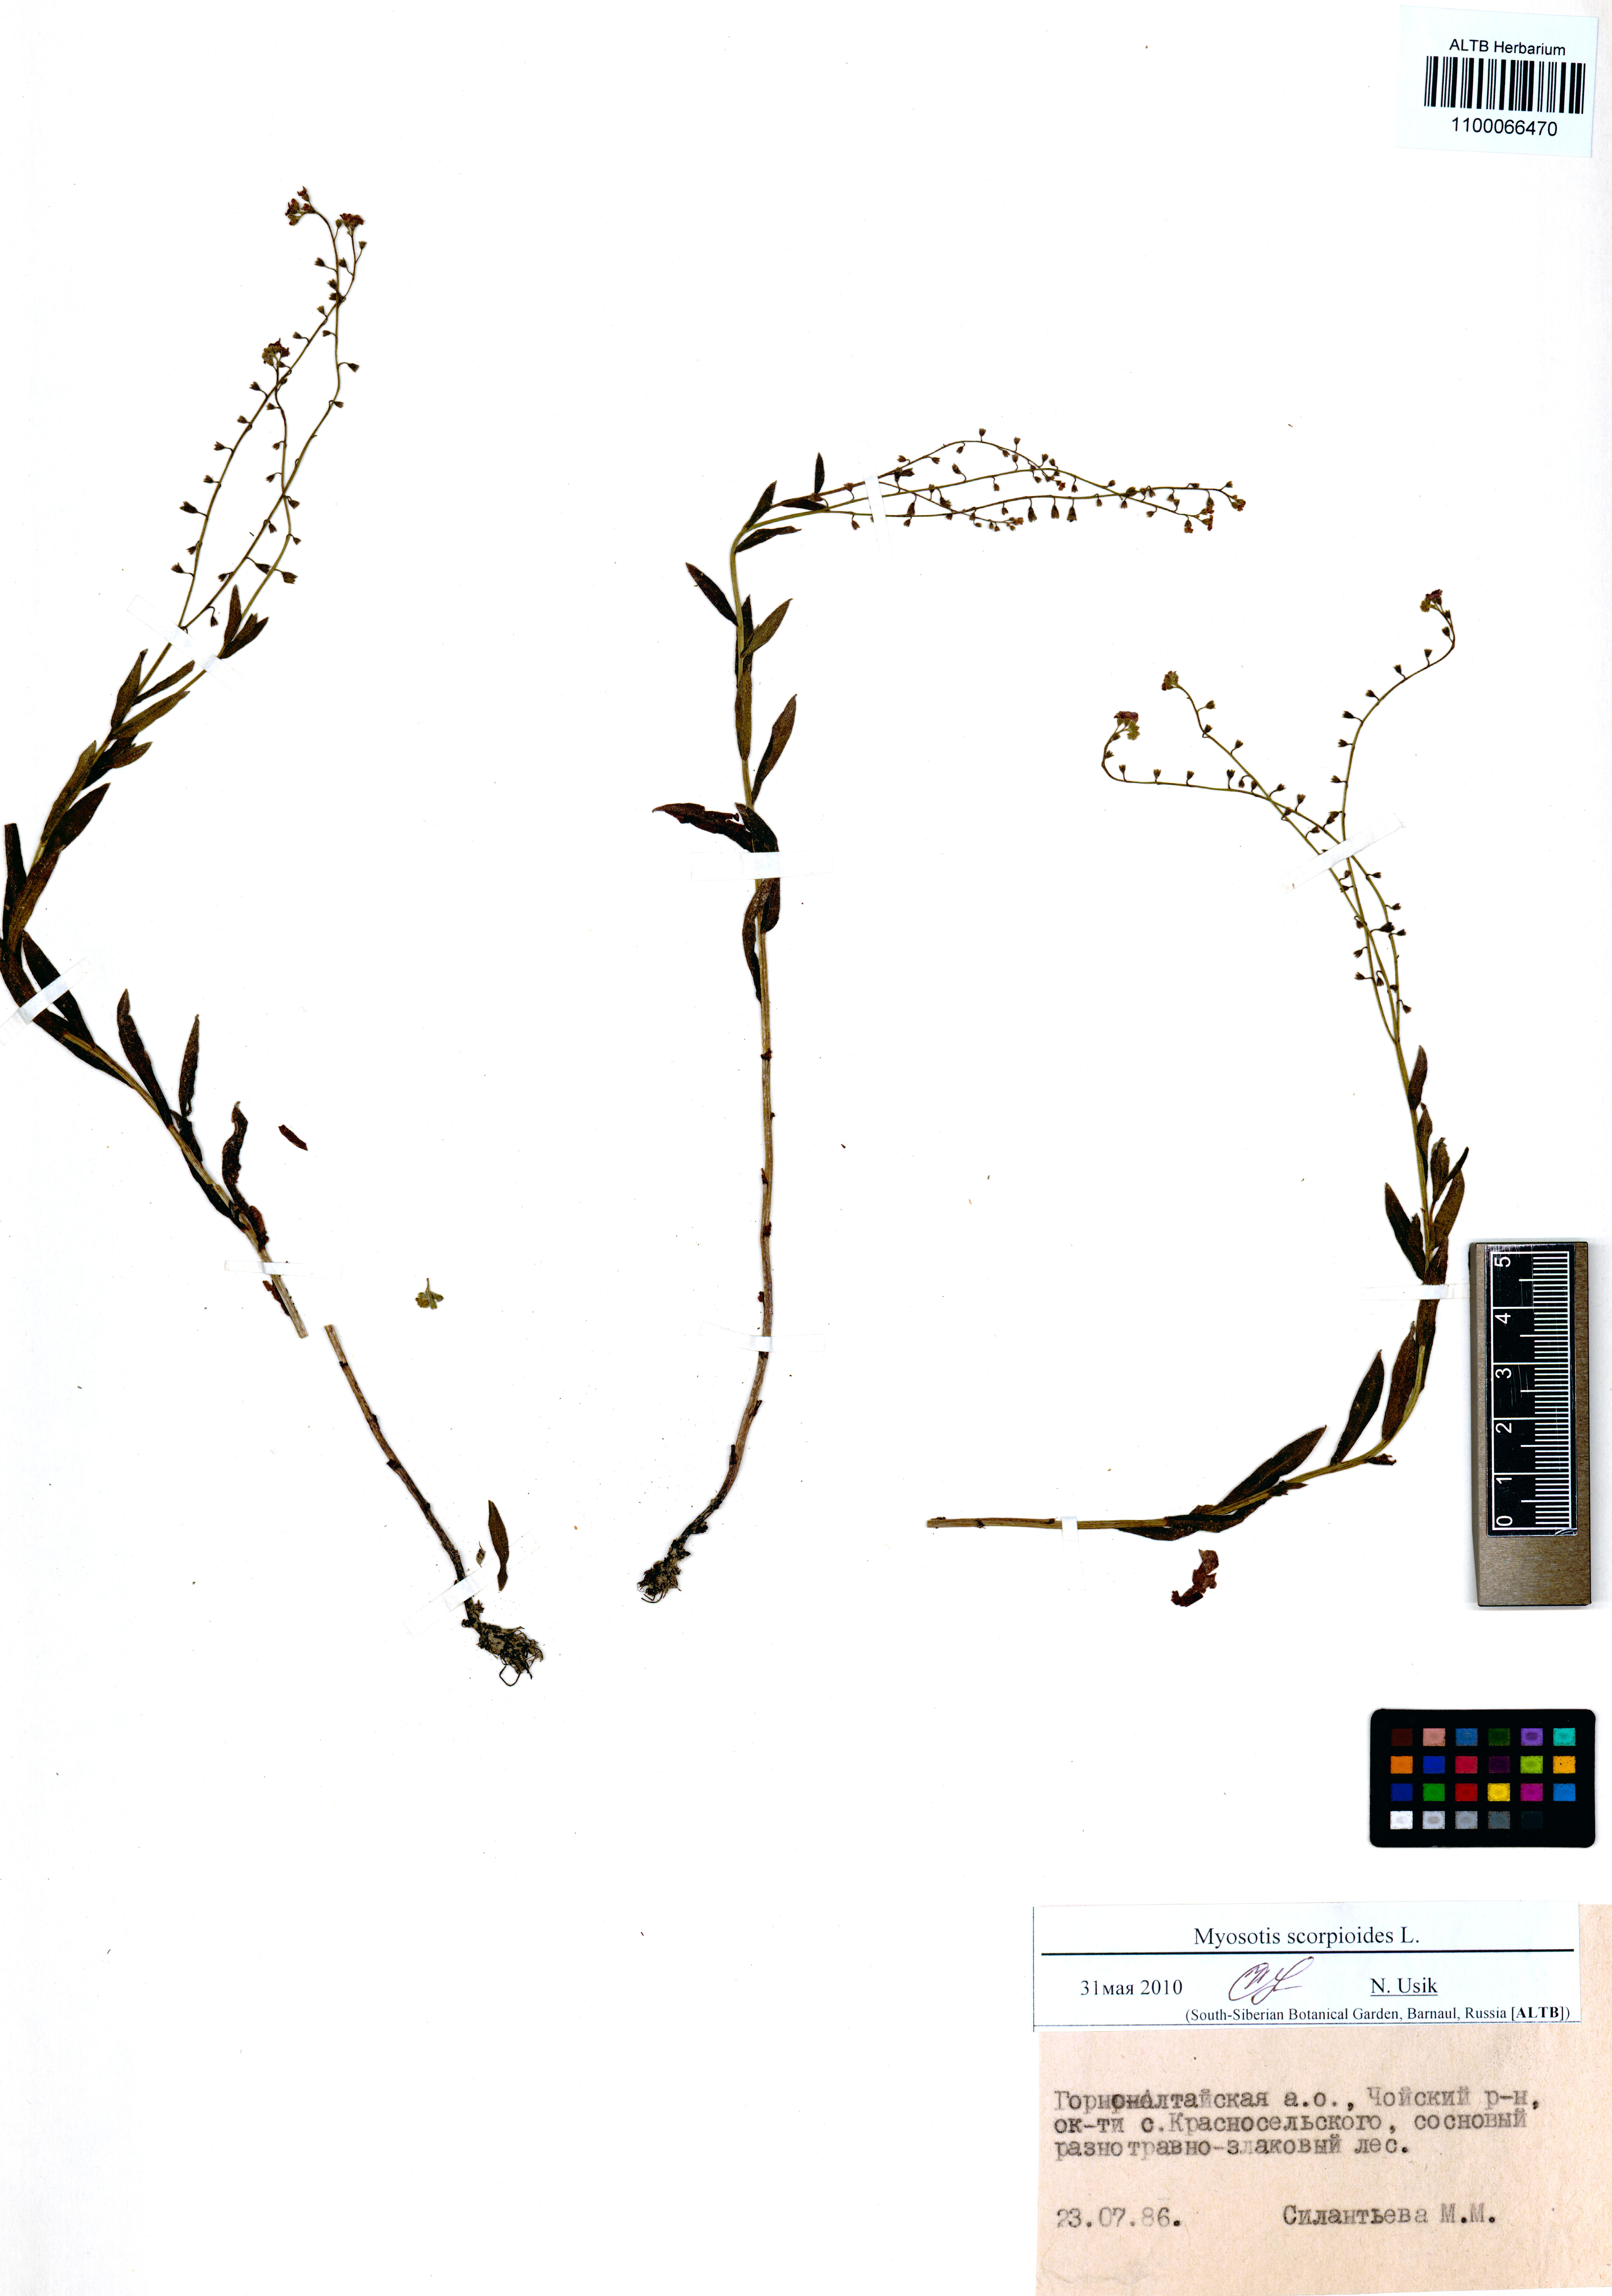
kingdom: Plantae
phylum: Tracheophyta
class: Magnoliopsida
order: Boraginales
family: Boraginaceae
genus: Myosotis
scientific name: Myosotis scorpioides
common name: Water forget-me-not
